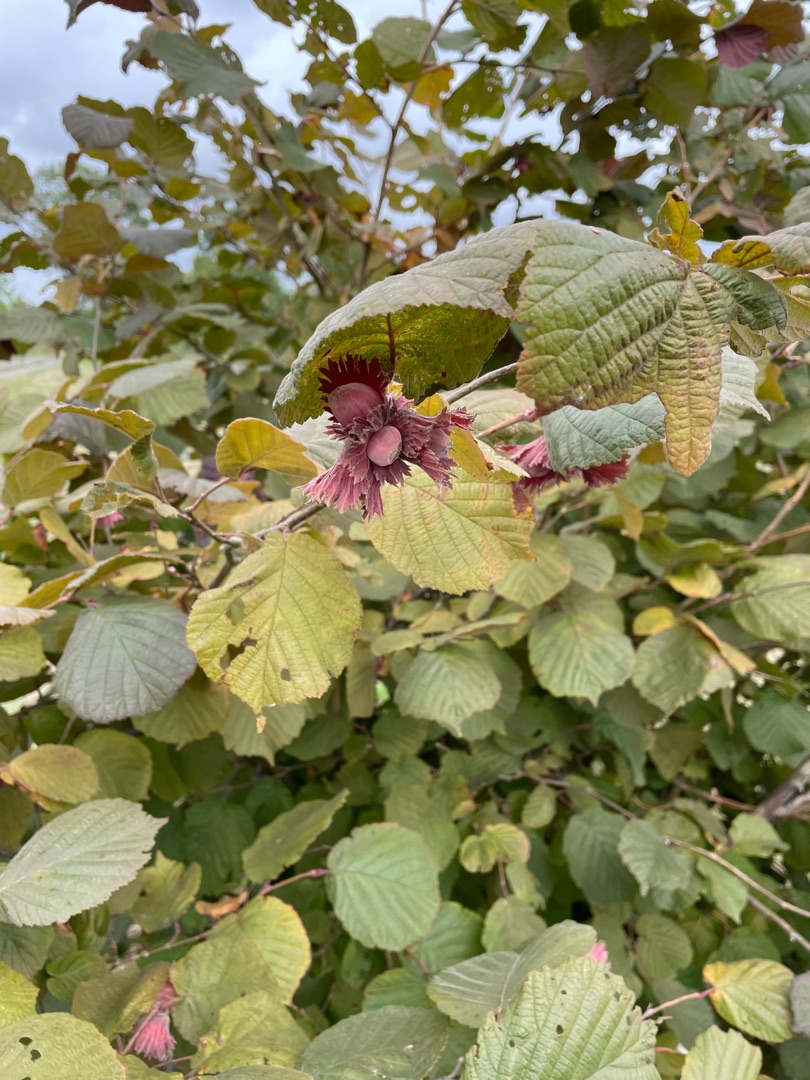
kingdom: Plantae
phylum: Tracheophyta
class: Magnoliopsida
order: Fagales
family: Betulaceae
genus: Corylus
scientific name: Corylus avellana
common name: Hassel
